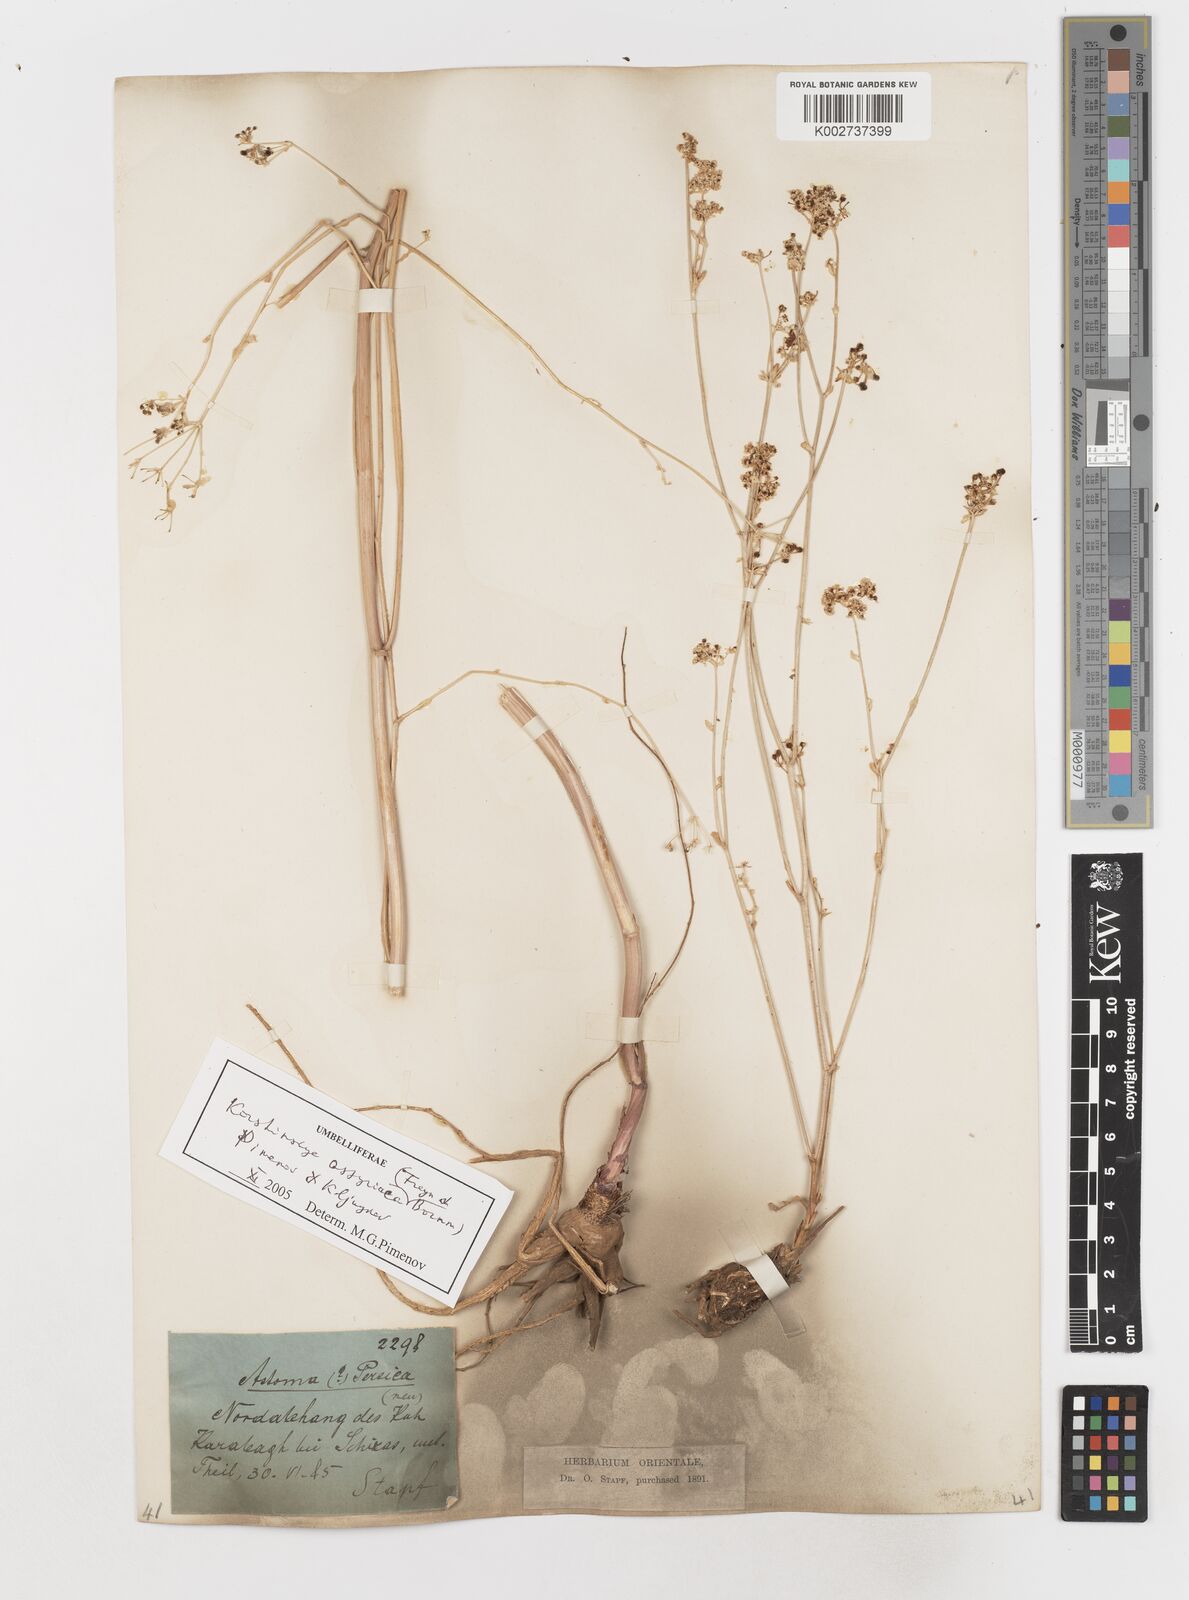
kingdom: Plantae
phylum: Tracheophyta
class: Magnoliopsida
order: Apiales
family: Apiaceae
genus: Korshinskia
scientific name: Korshinskia assyriaca
